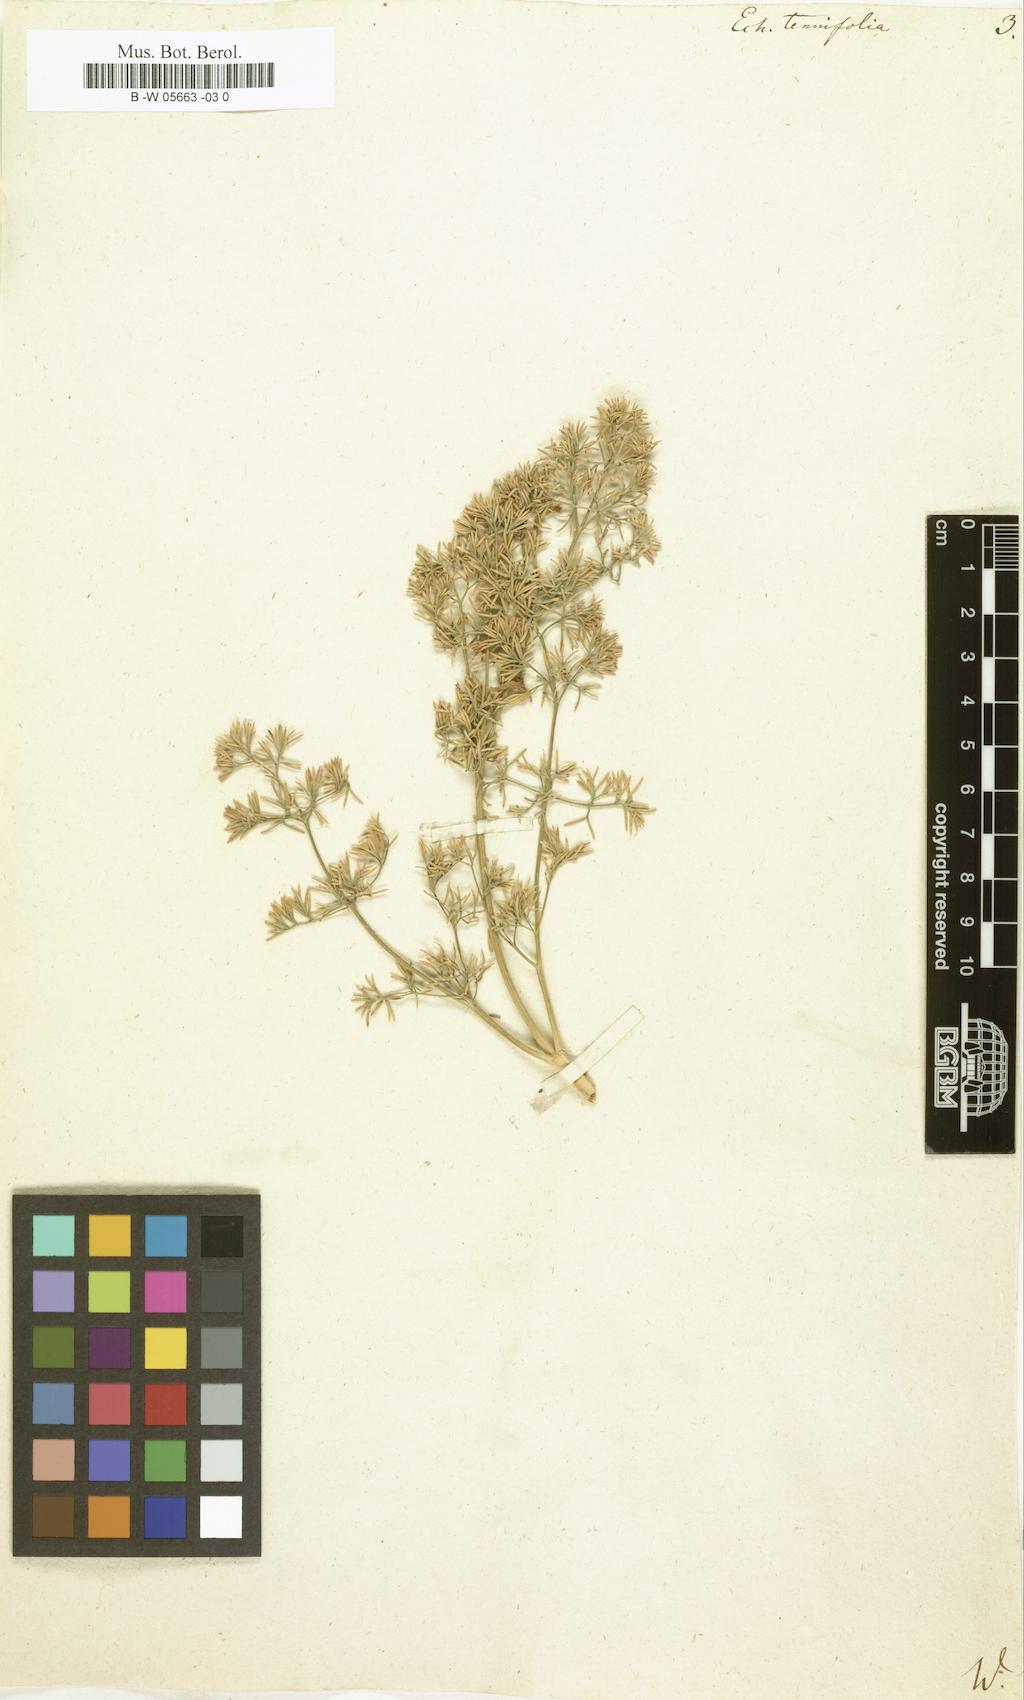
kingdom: Plantae
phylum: Tracheophyta
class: Magnoliopsida
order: Apiales
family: Apiaceae
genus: Echinophora
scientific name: Echinophora tenuifolia
